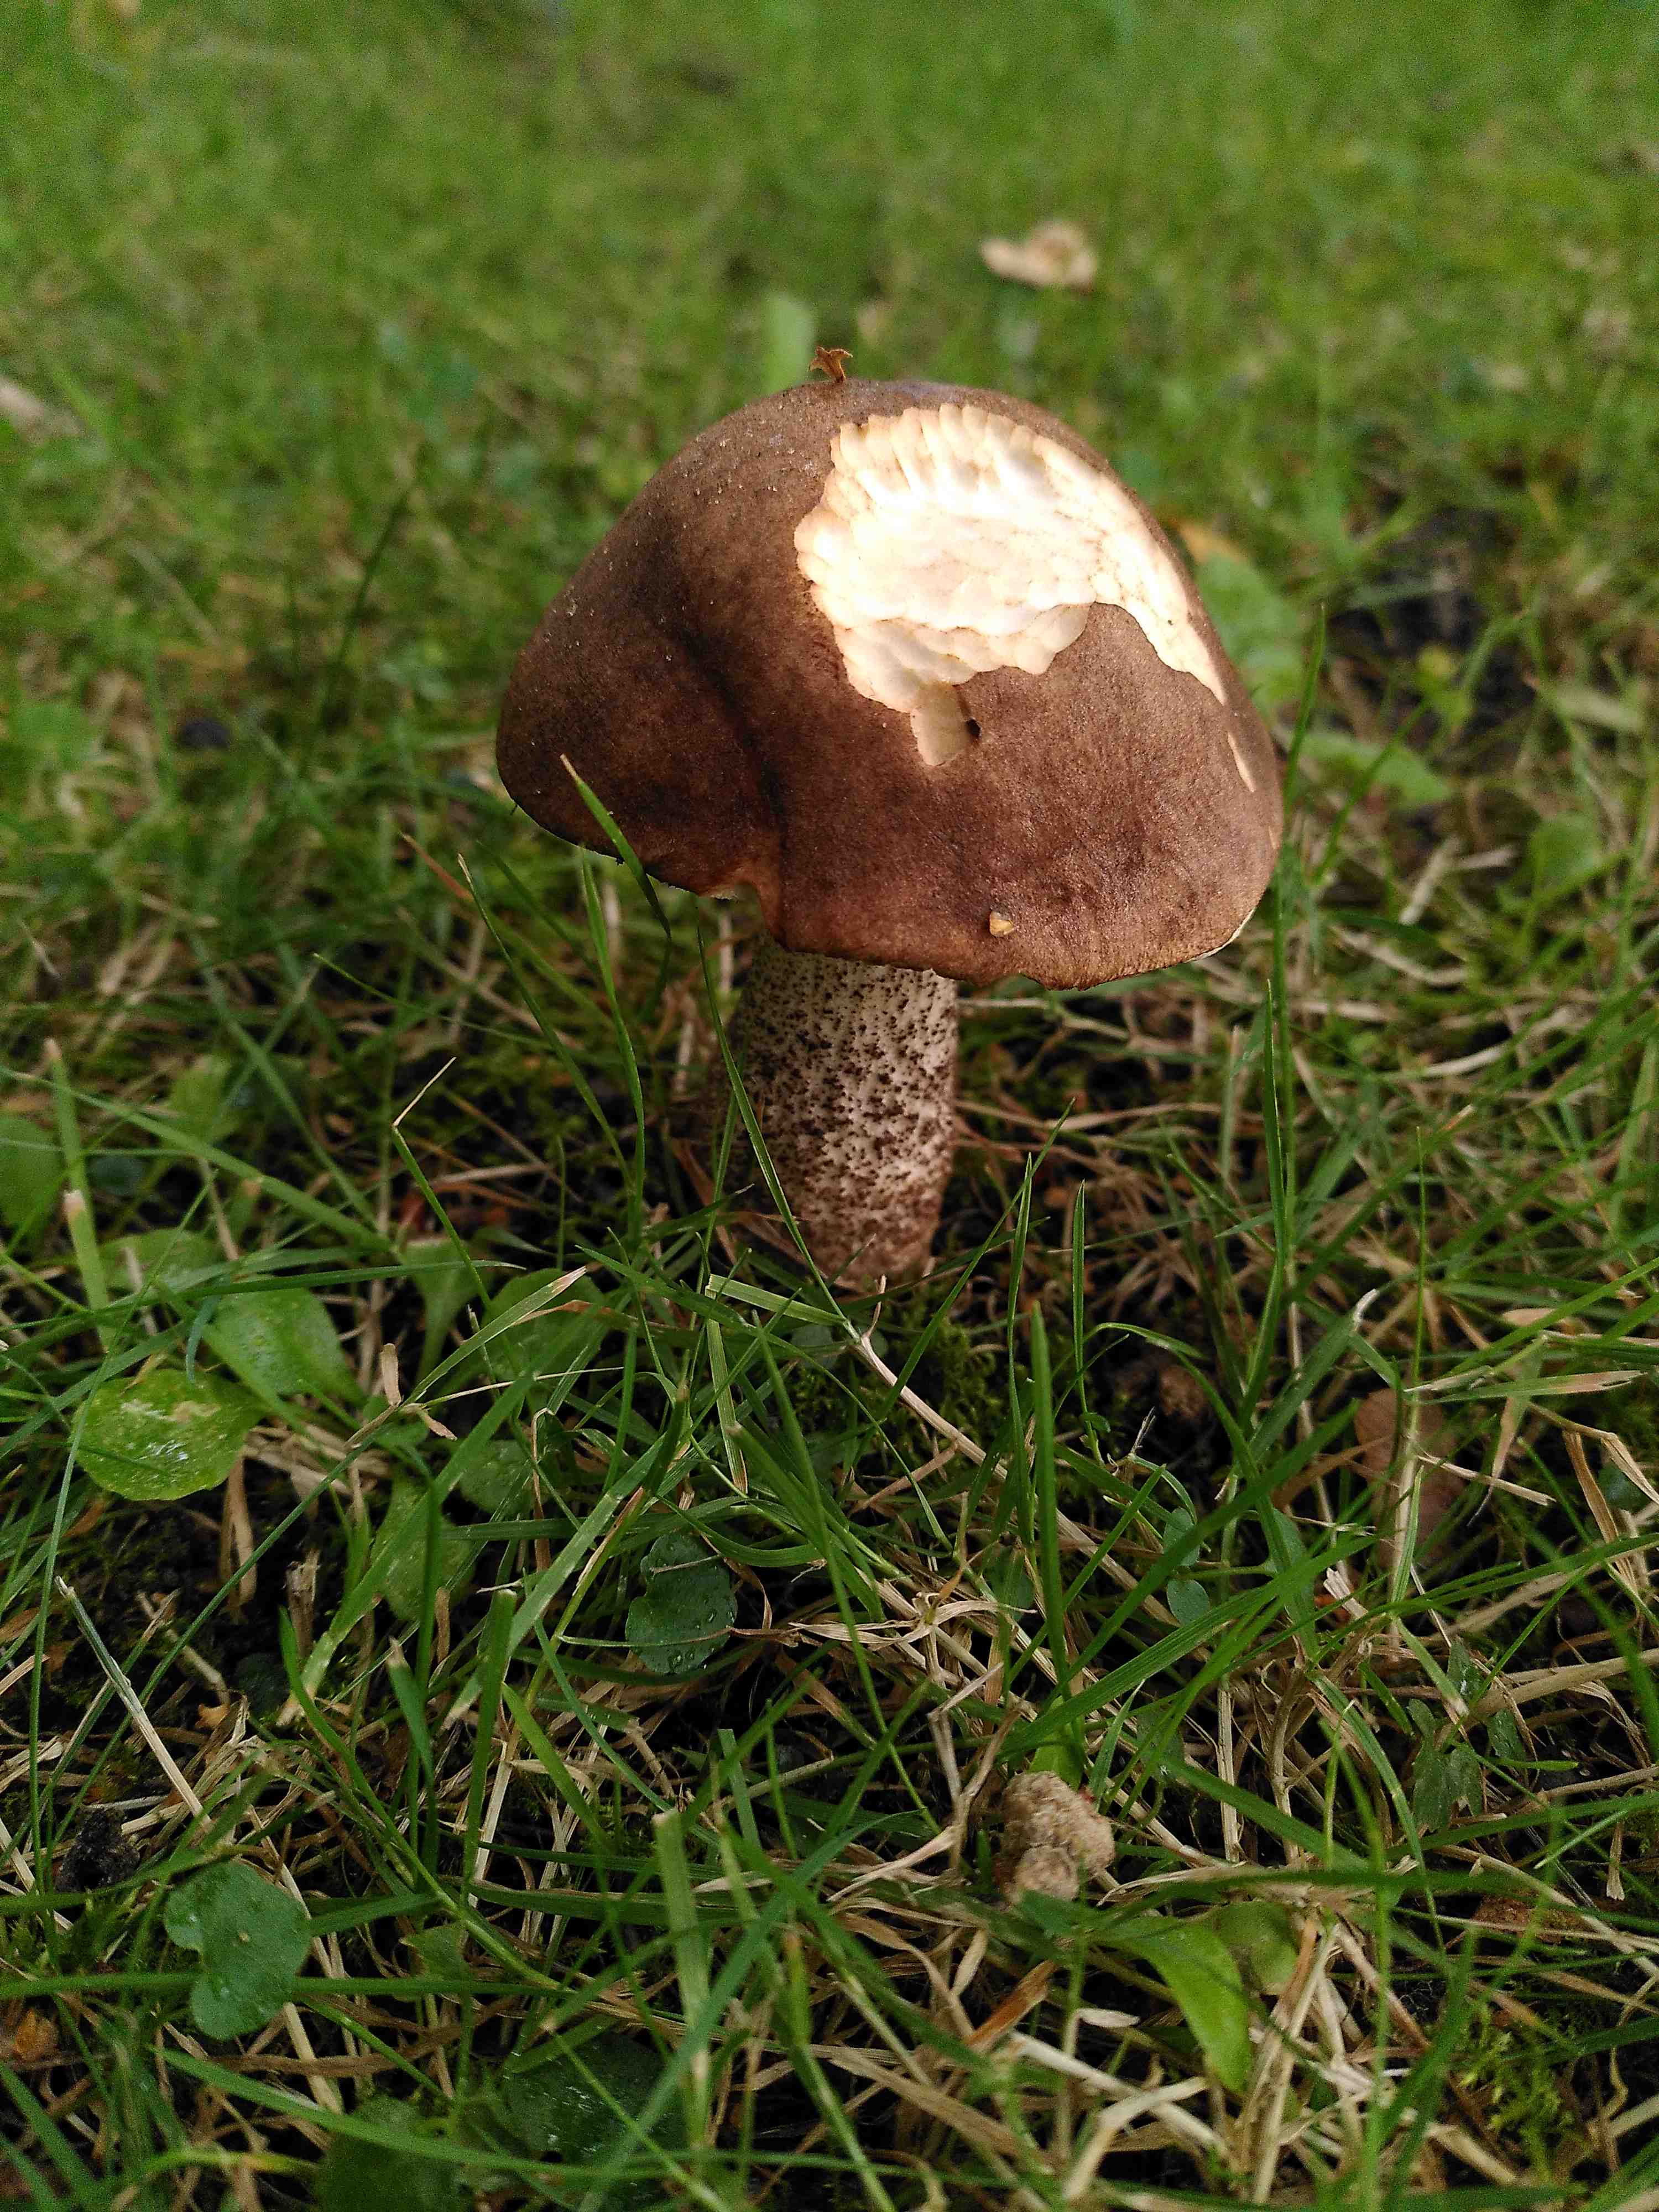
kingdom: Fungi
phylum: Basidiomycota
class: Agaricomycetes
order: Boletales
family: Boletaceae
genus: Leccinum
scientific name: Leccinum scabrum
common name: brun skælrørhat
